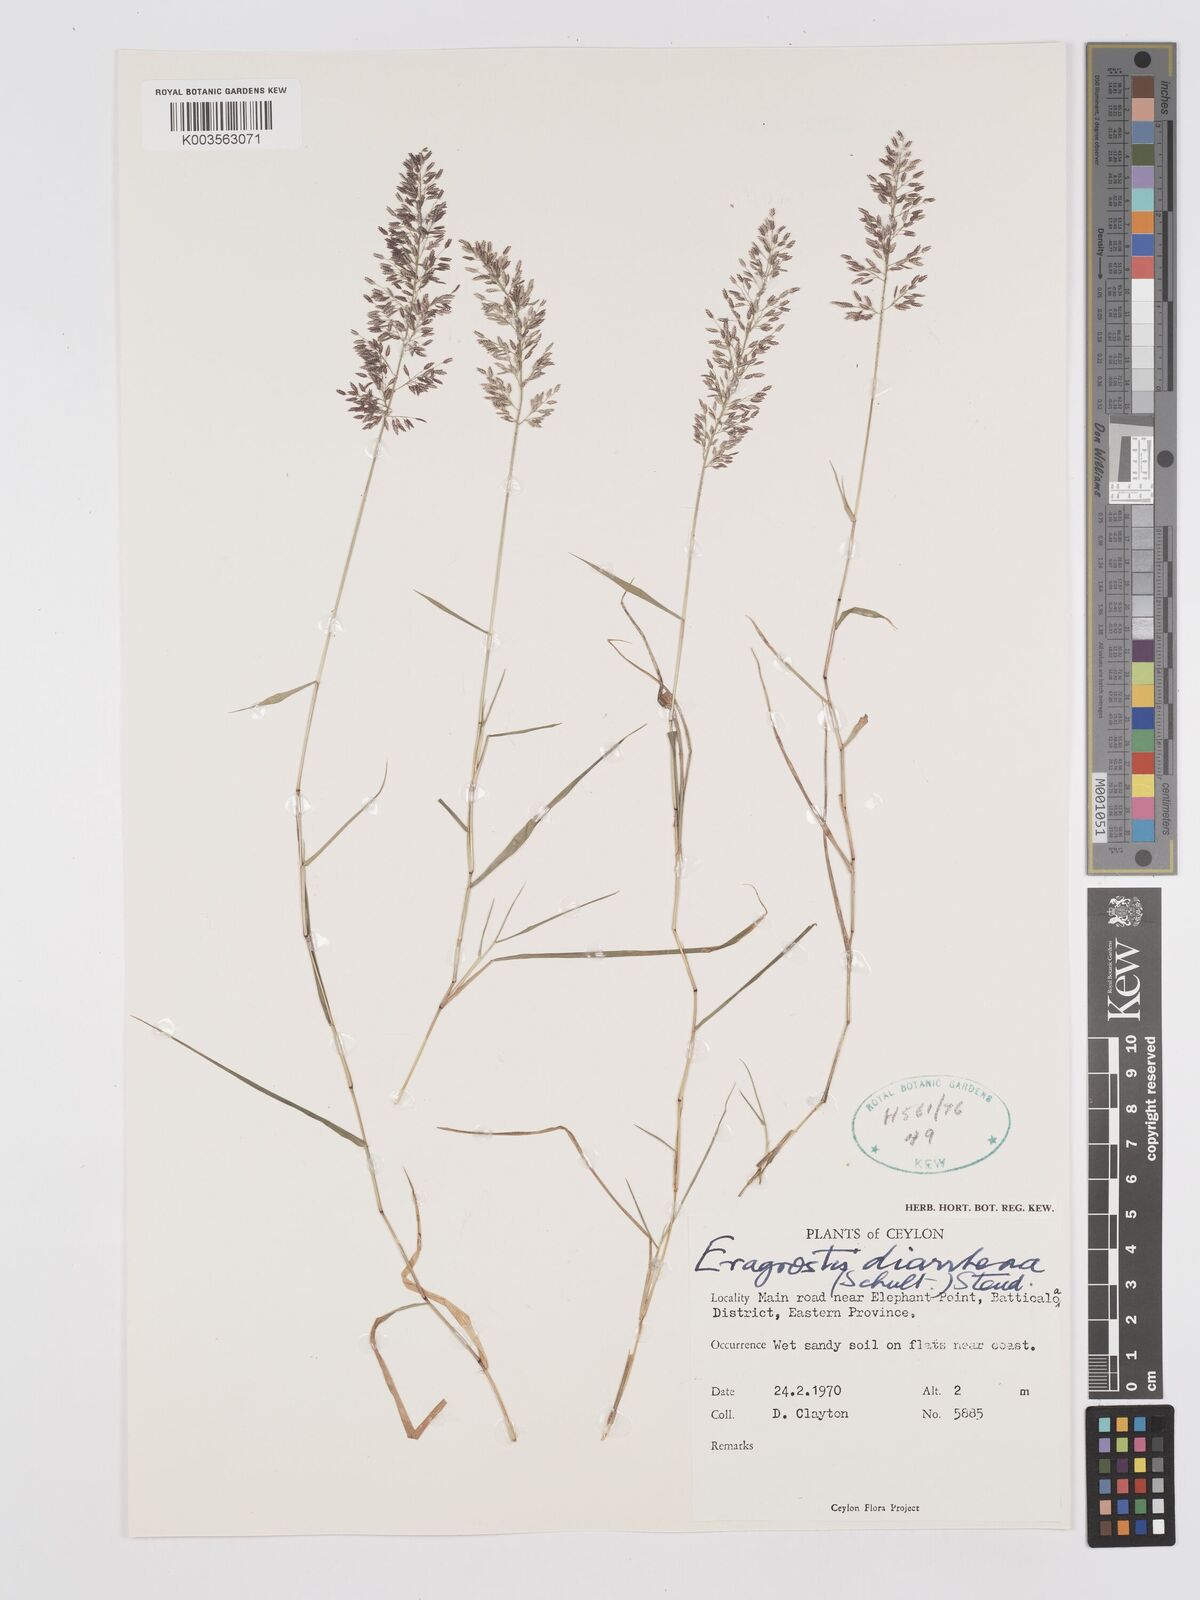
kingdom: Plantae
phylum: Tracheophyta
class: Liliopsida
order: Poales
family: Poaceae
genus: Eragrostis
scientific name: Eragrostis japonica
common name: Pond lovegrass
